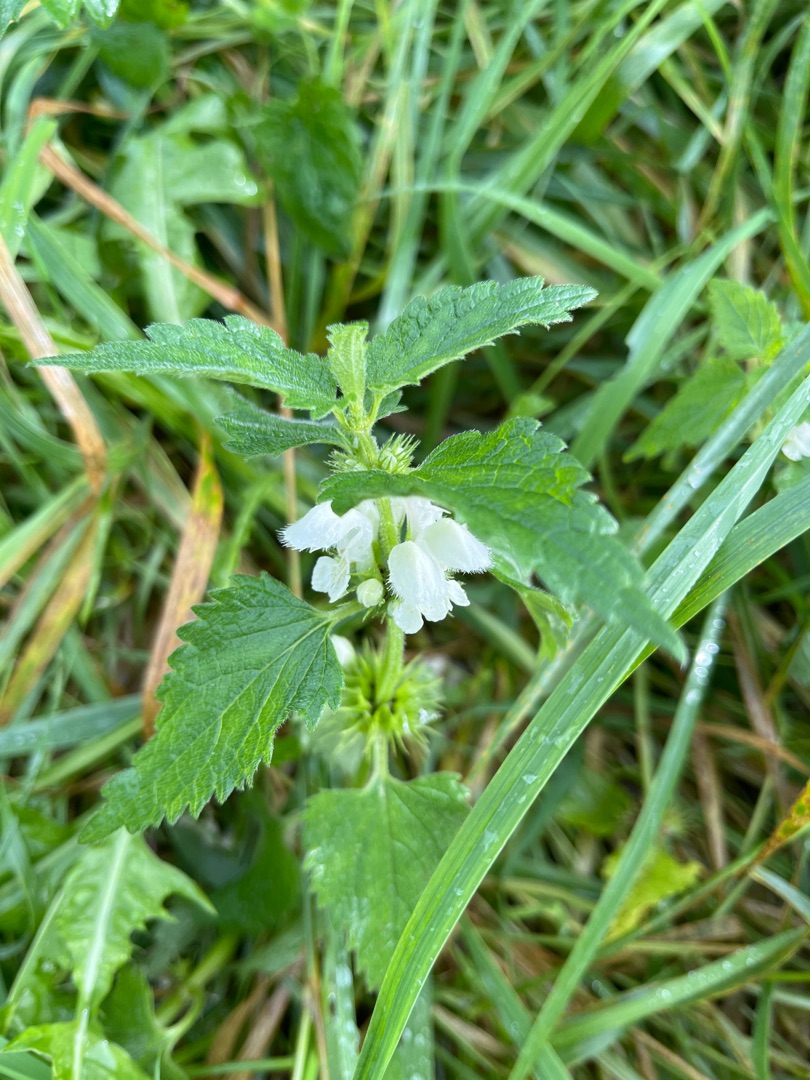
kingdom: Plantae
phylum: Tracheophyta
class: Magnoliopsida
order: Lamiales
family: Lamiaceae
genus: Lamium
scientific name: Lamium album
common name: Døvnælde
